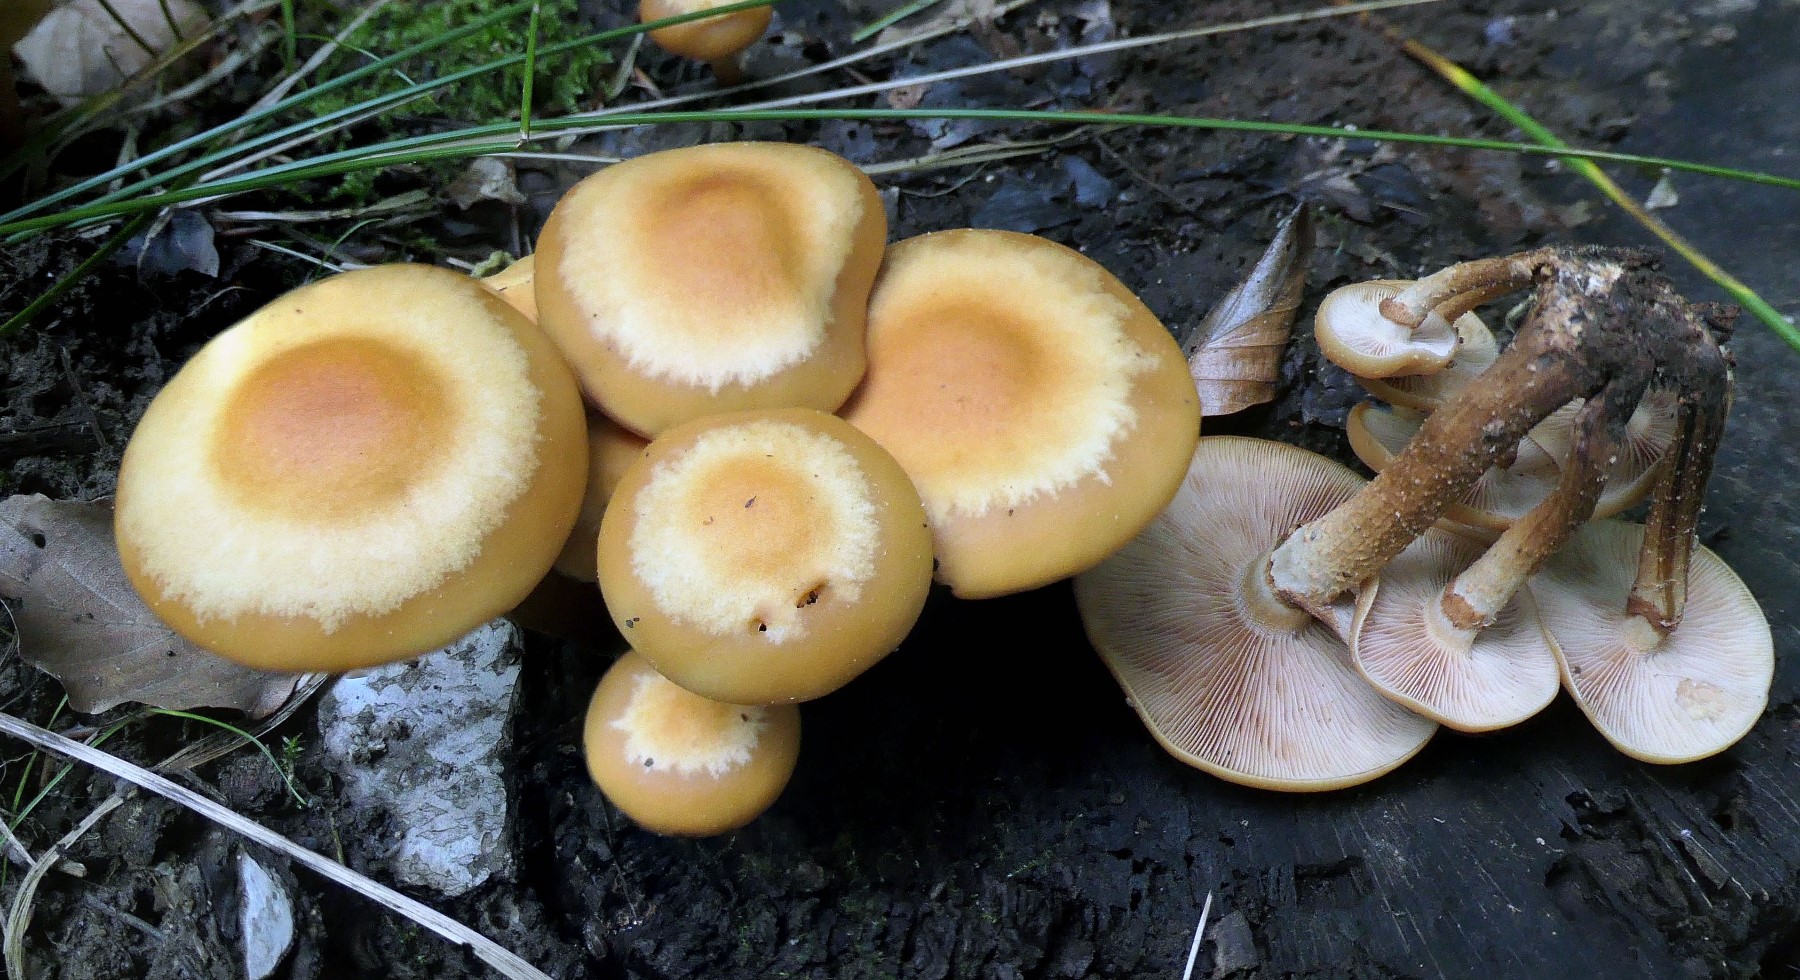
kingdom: Fungi
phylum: Basidiomycota
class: Agaricomycetes
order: Agaricales
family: Strophariaceae
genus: Kuehneromyces
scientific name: Kuehneromyces mutabilis
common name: foranderlig skælhat
